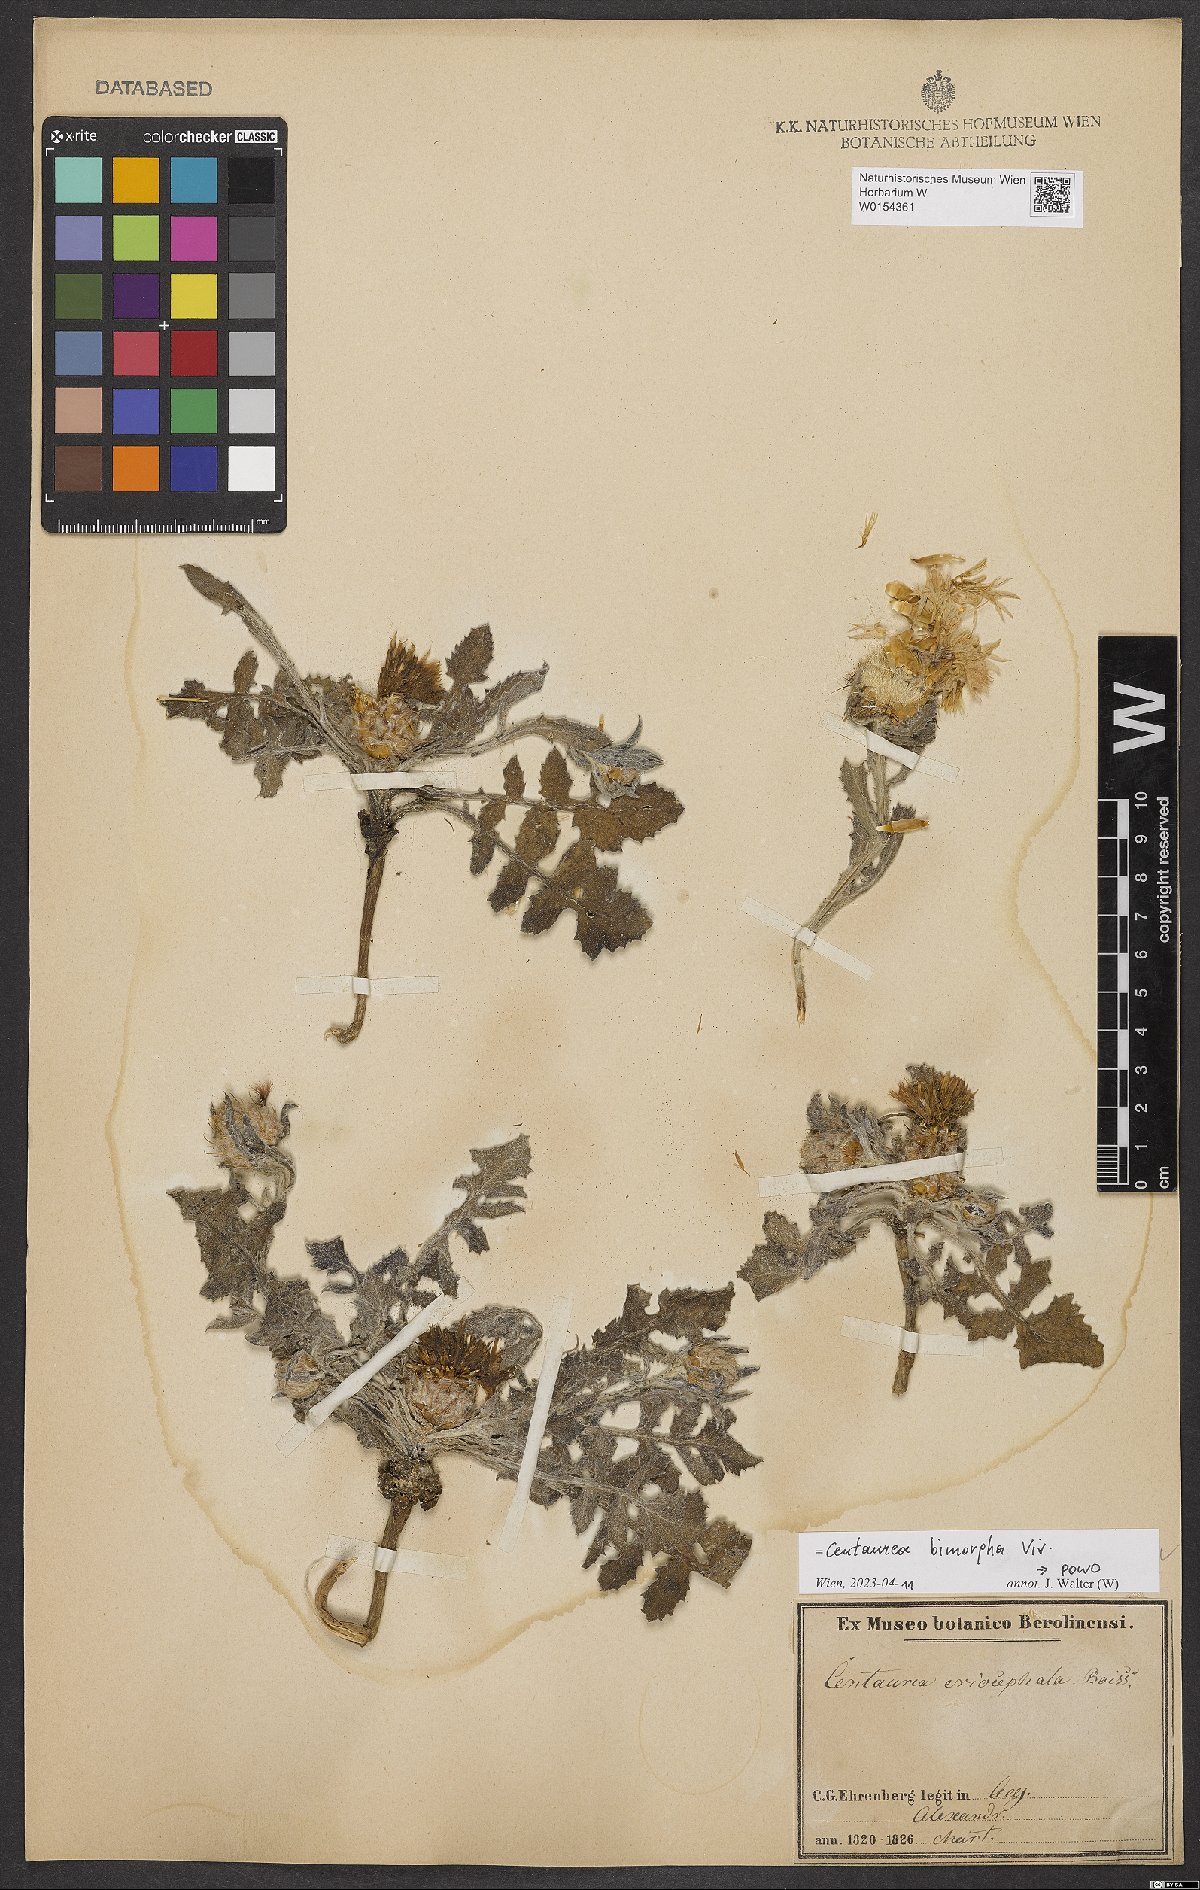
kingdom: Plantae
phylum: Tracheophyta
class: Magnoliopsida
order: Asterales
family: Asteraceae
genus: Centaurea
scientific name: Centaurea bimorpha
